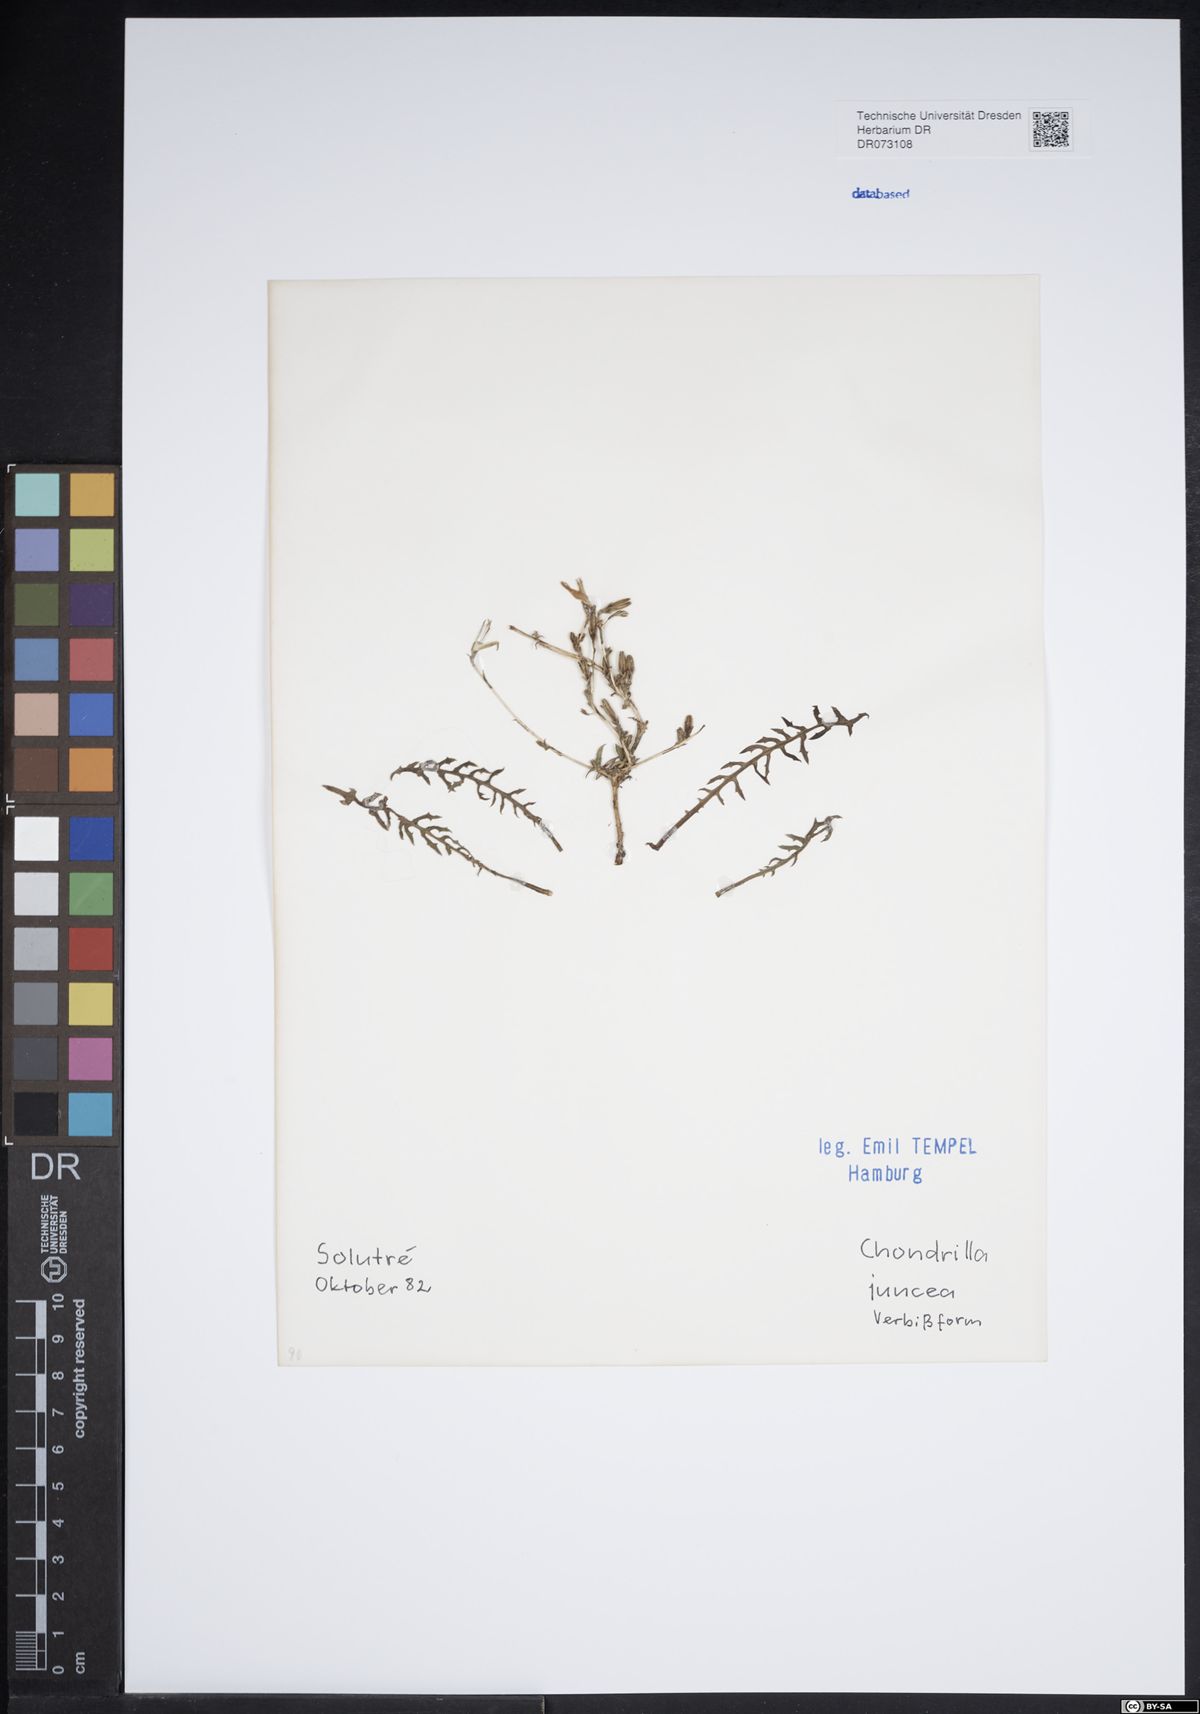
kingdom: Plantae
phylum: Tracheophyta
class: Magnoliopsida
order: Asterales
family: Asteraceae
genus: Chondrilla
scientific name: Chondrilla juncea
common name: Skeleton weed
